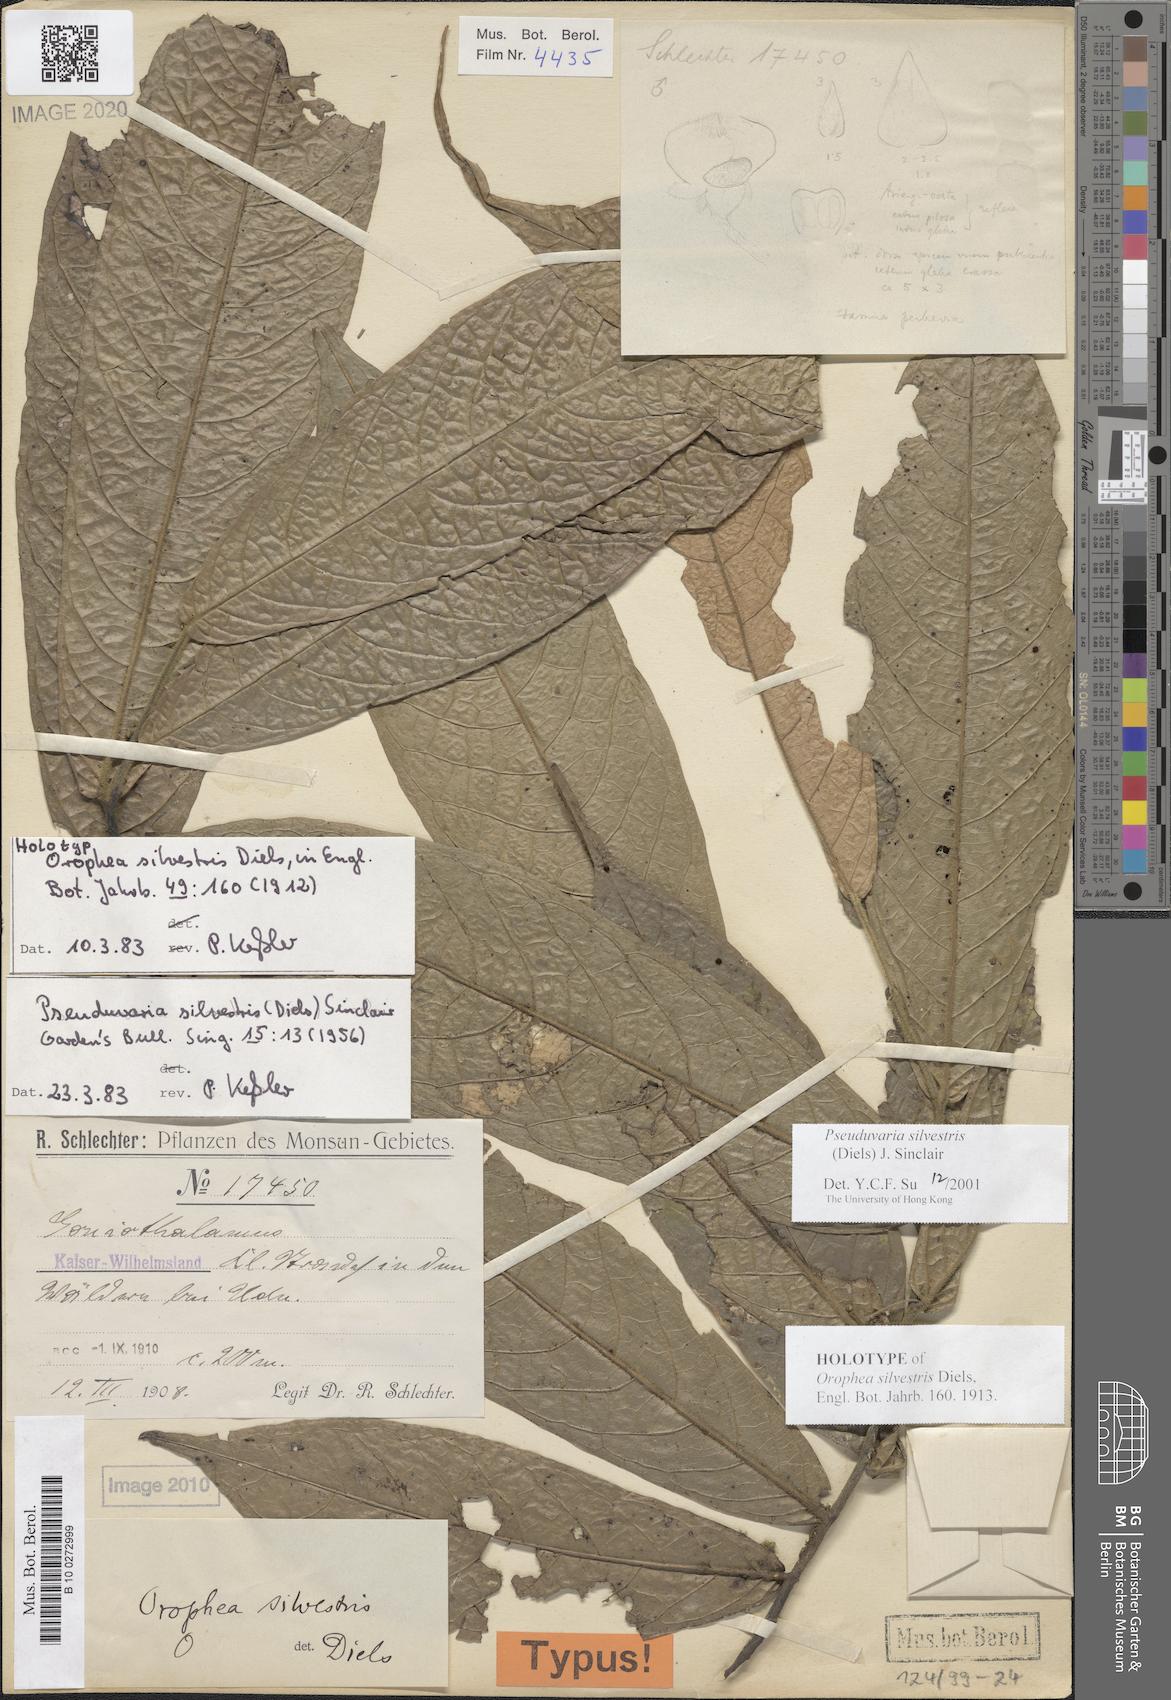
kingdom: Plantae
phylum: Tracheophyta
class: Magnoliopsida
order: Magnoliales
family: Annonaceae
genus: Pseuduvaria
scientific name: Pseuduvaria silvestris
